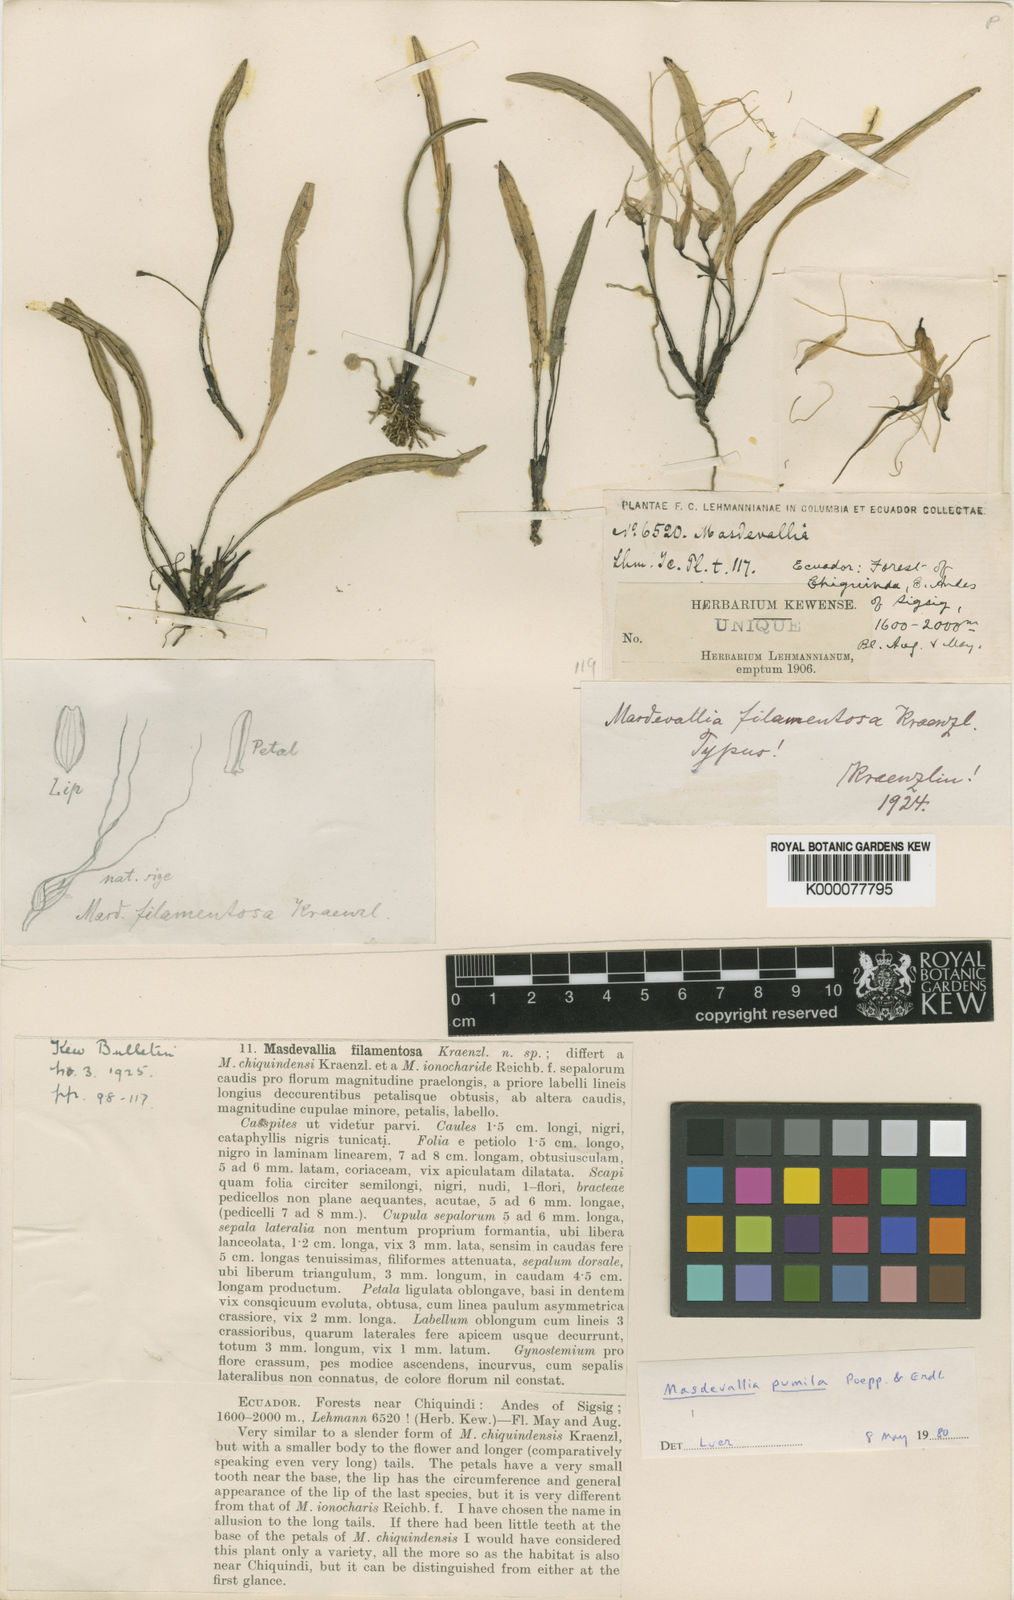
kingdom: Plantae
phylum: Tracheophyta
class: Liliopsida
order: Asparagales
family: Orchidaceae
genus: Masdevallia
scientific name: Masdevallia pumila
